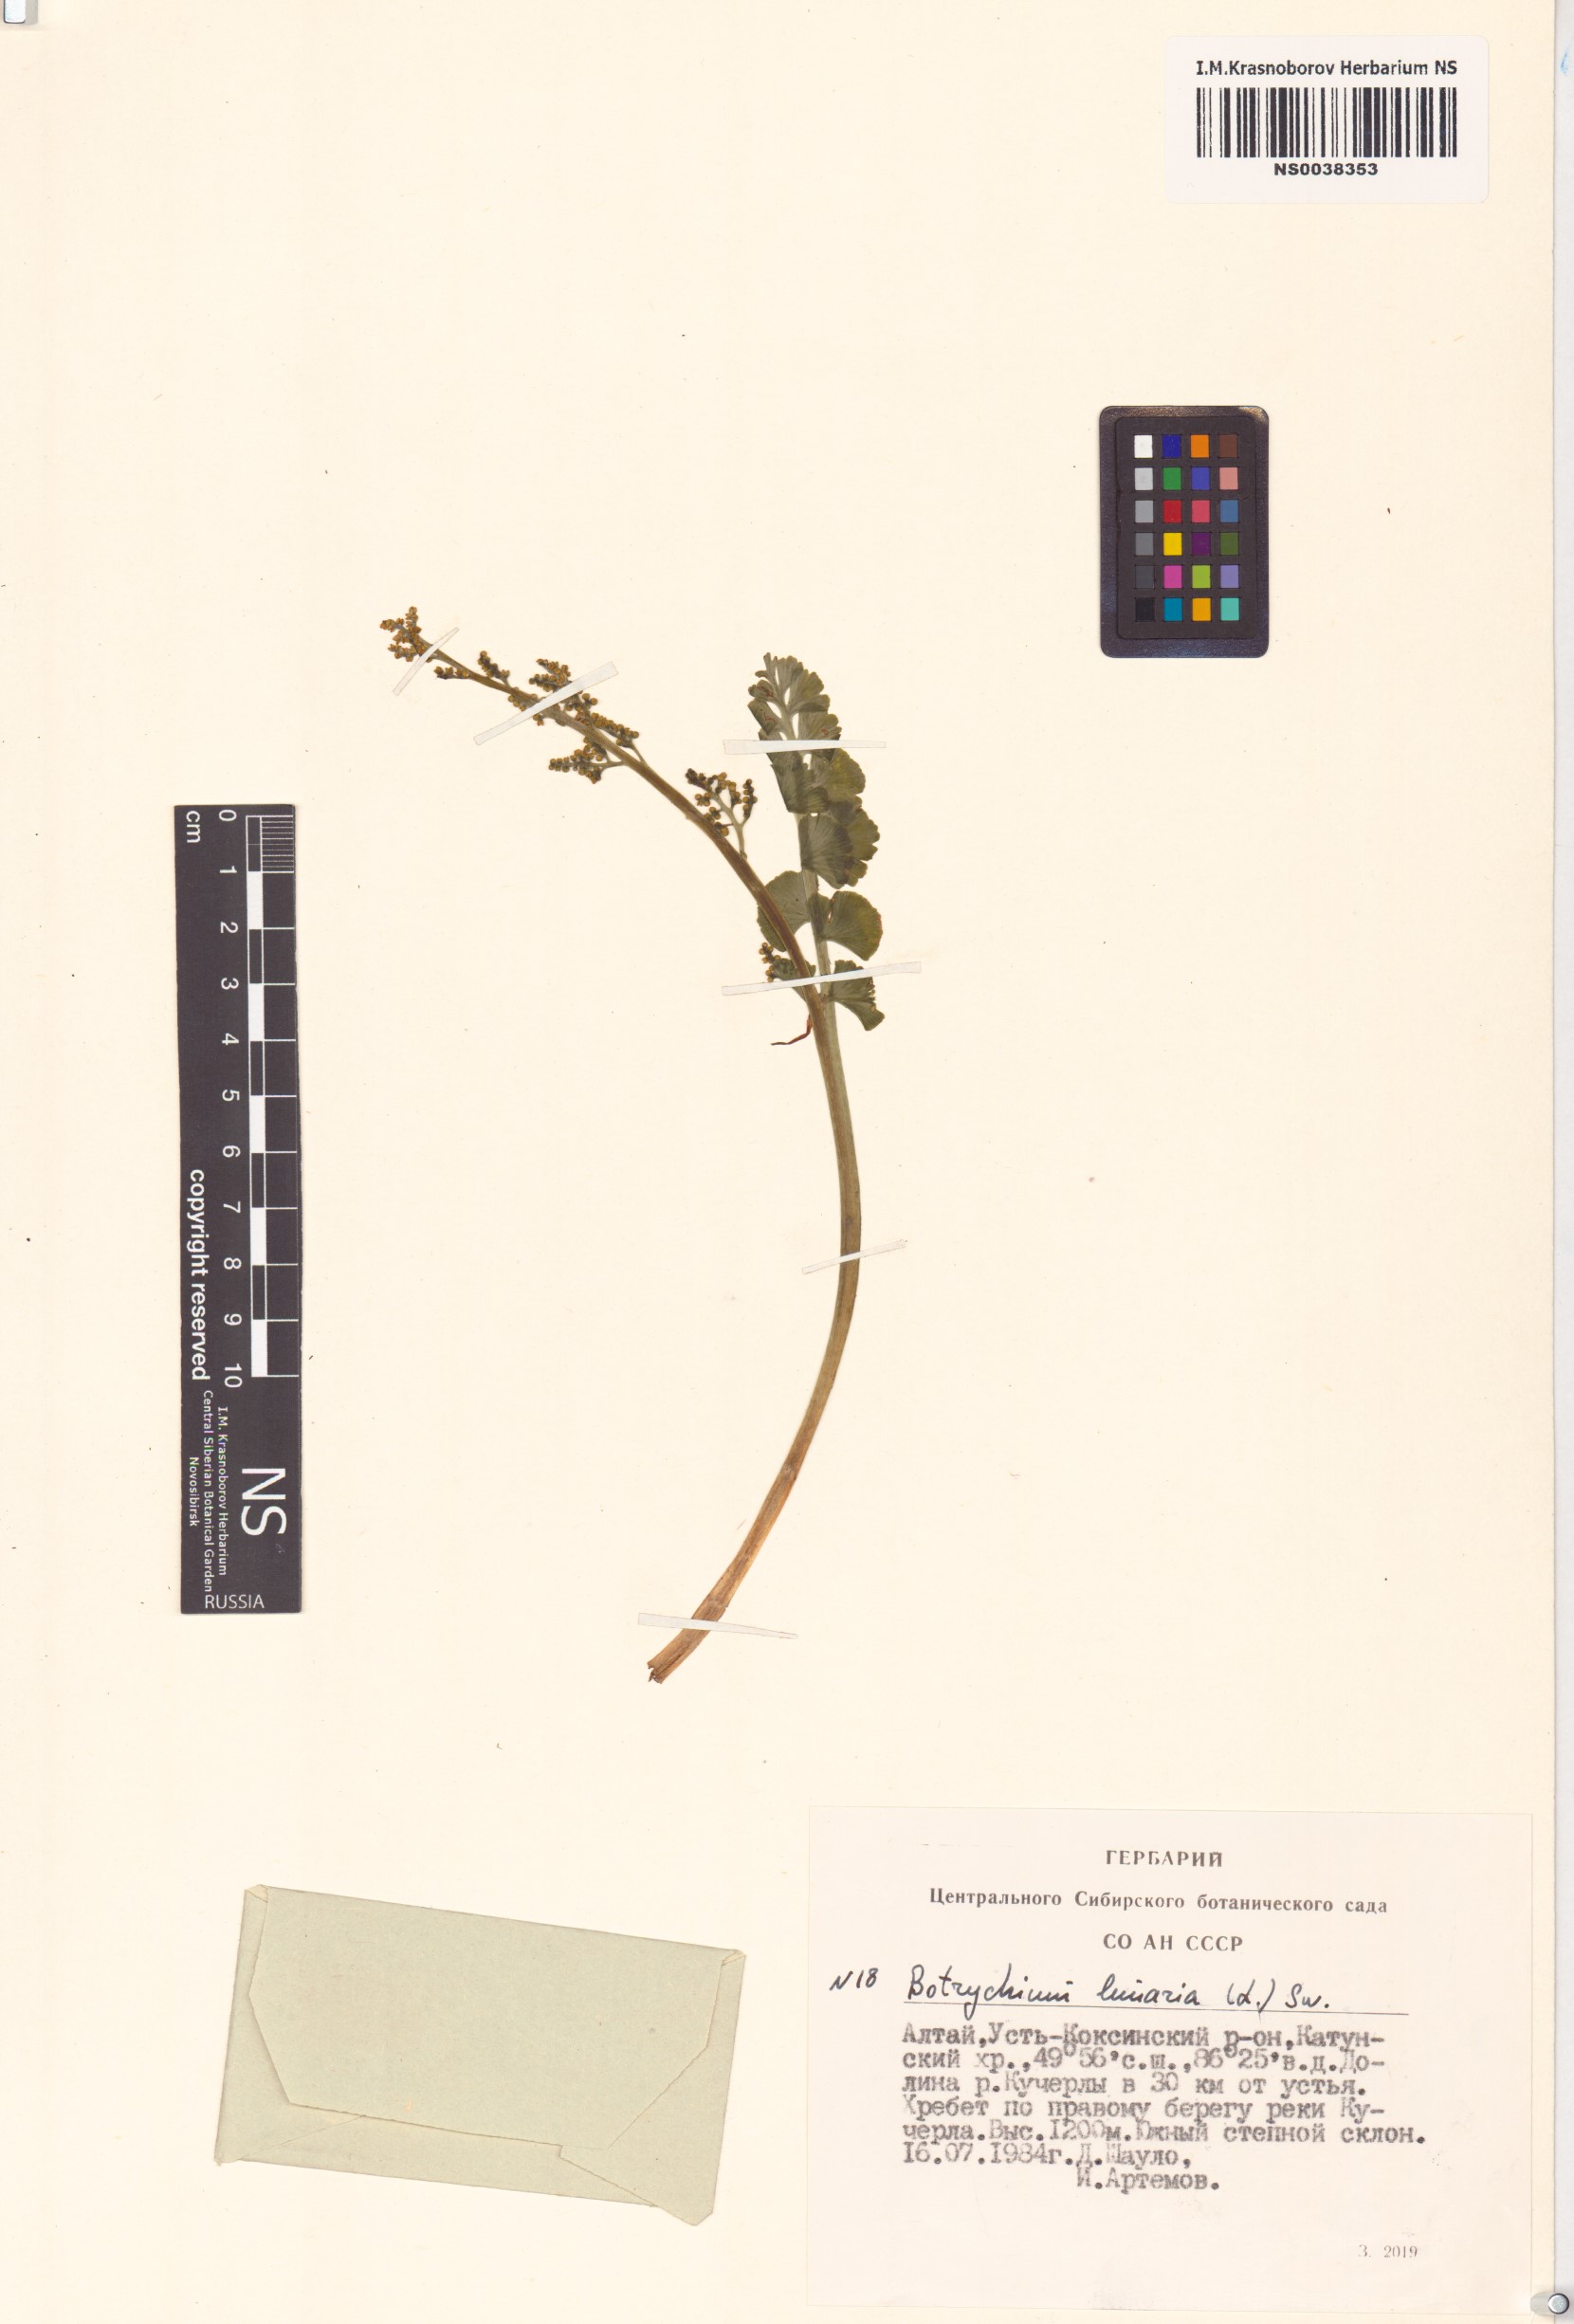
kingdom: Plantae
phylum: Tracheophyta
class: Polypodiopsida
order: Ophioglossales
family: Ophioglossaceae
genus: Botrychium
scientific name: Botrychium lunaria
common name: Moonwort
